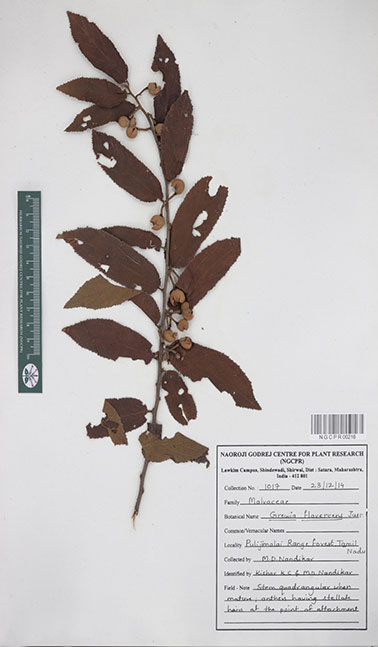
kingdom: Plantae
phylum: Tracheophyta
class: Magnoliopsida
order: Malvales
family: Malvaceae
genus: Grewia
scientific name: Grewia flavescens
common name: Sandpaper raisin
